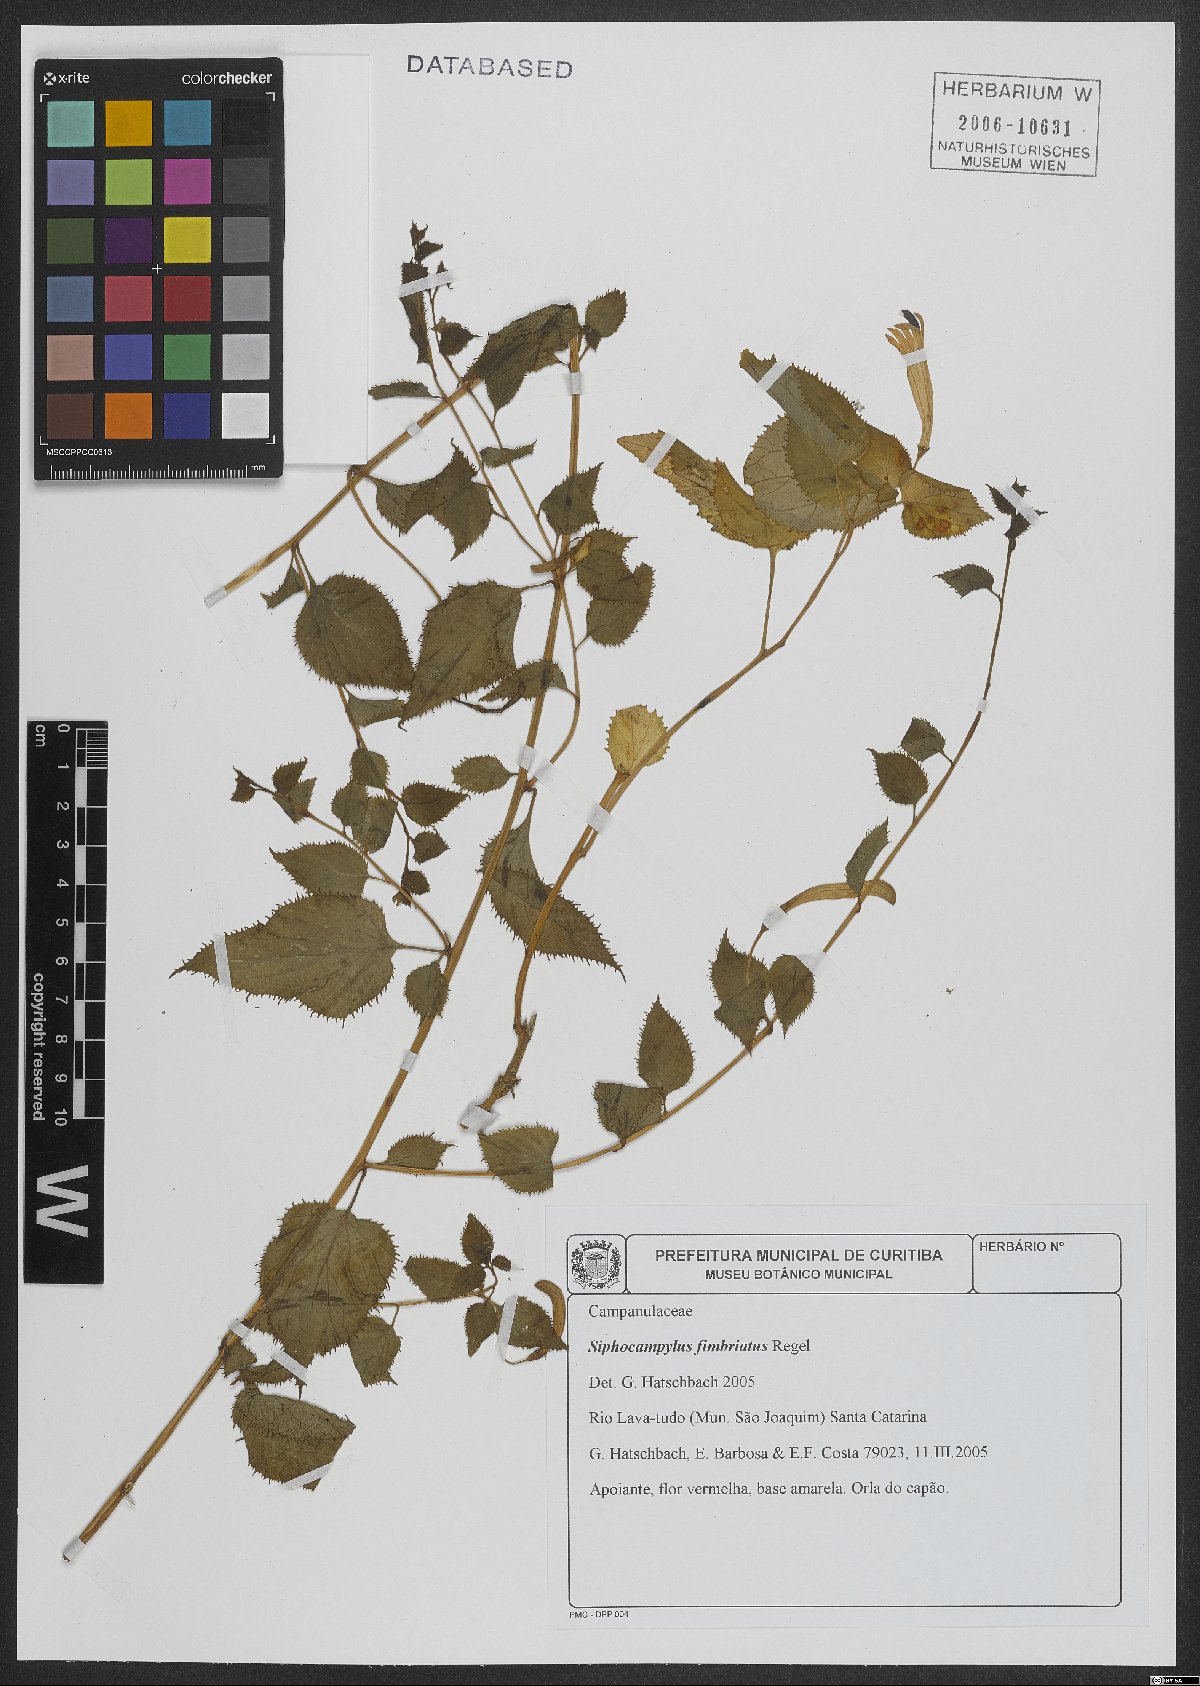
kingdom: Plantae
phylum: Tracheophyta
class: Magnoliopsida
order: Asterales
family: Campanulaceae
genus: Siphocampylus
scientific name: Siphocampylus fimbriatus
